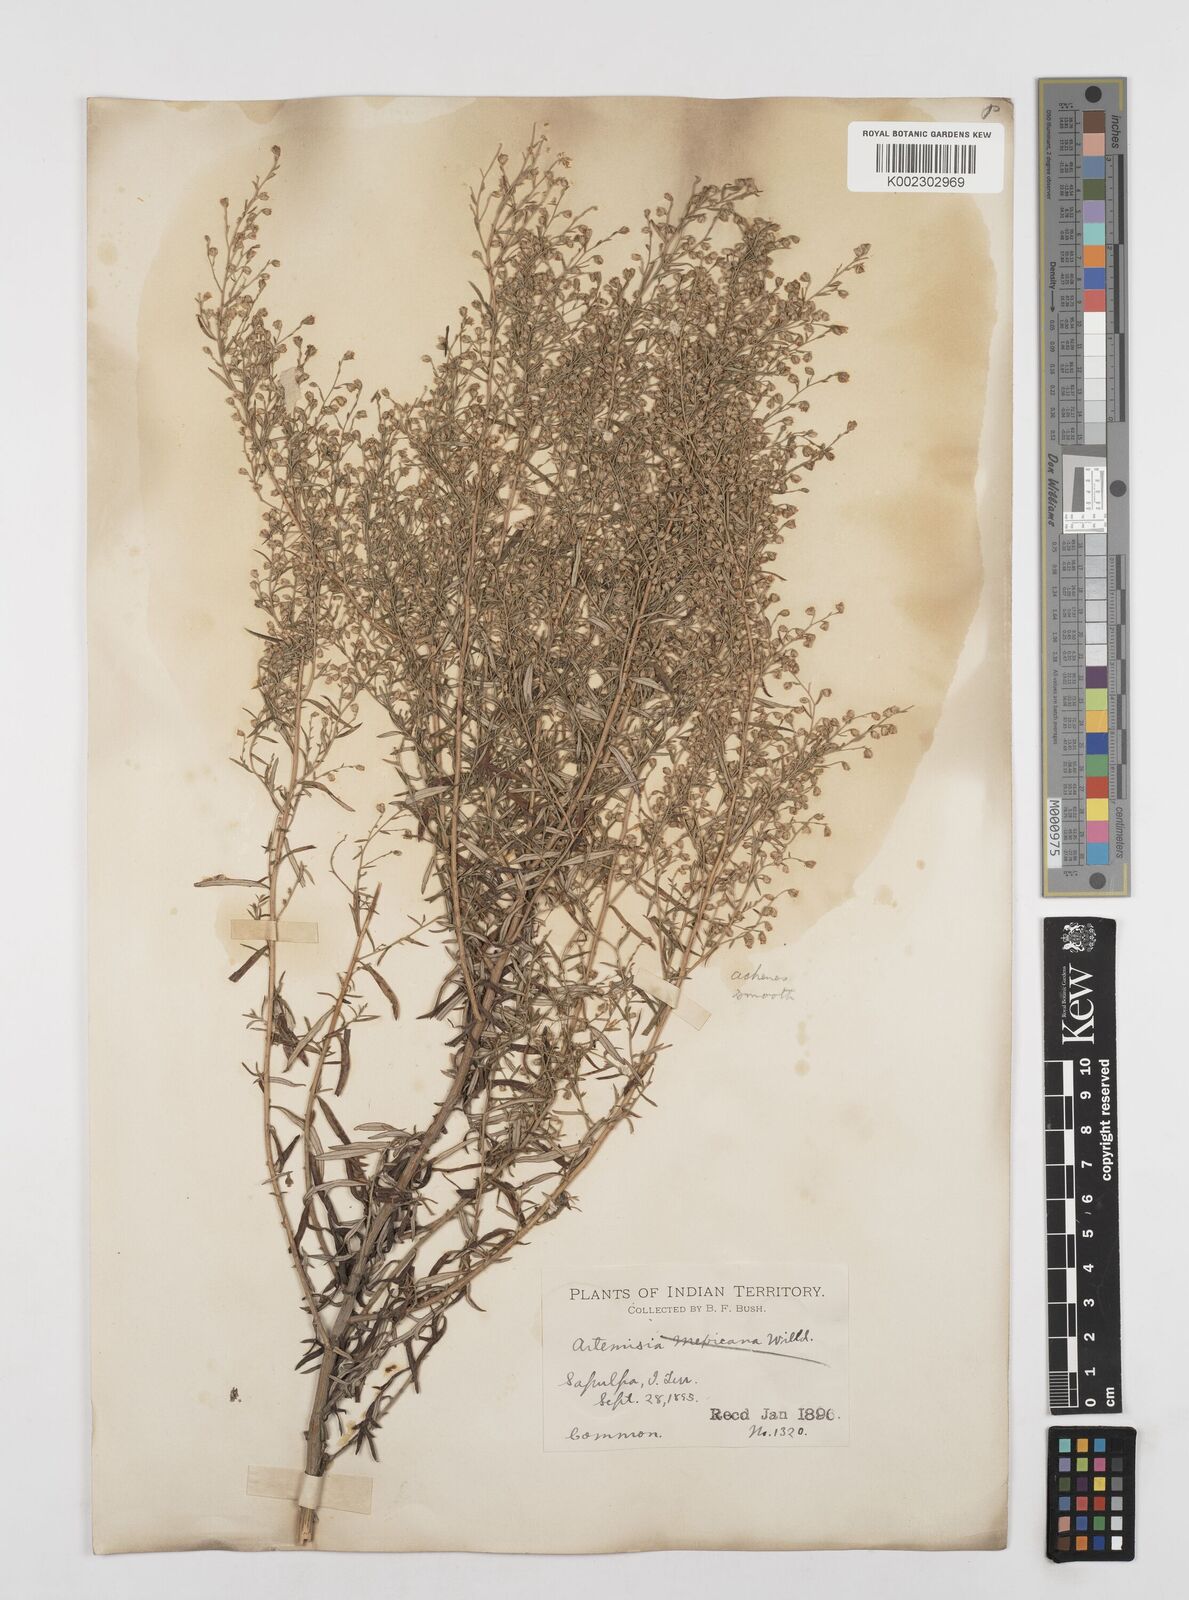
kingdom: Plantae
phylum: Tracheophyta
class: Magnoliopsida
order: Asterales
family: Asteraceae
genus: Artemisia
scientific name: Artemisia ludoviciana
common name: Western mugwort
